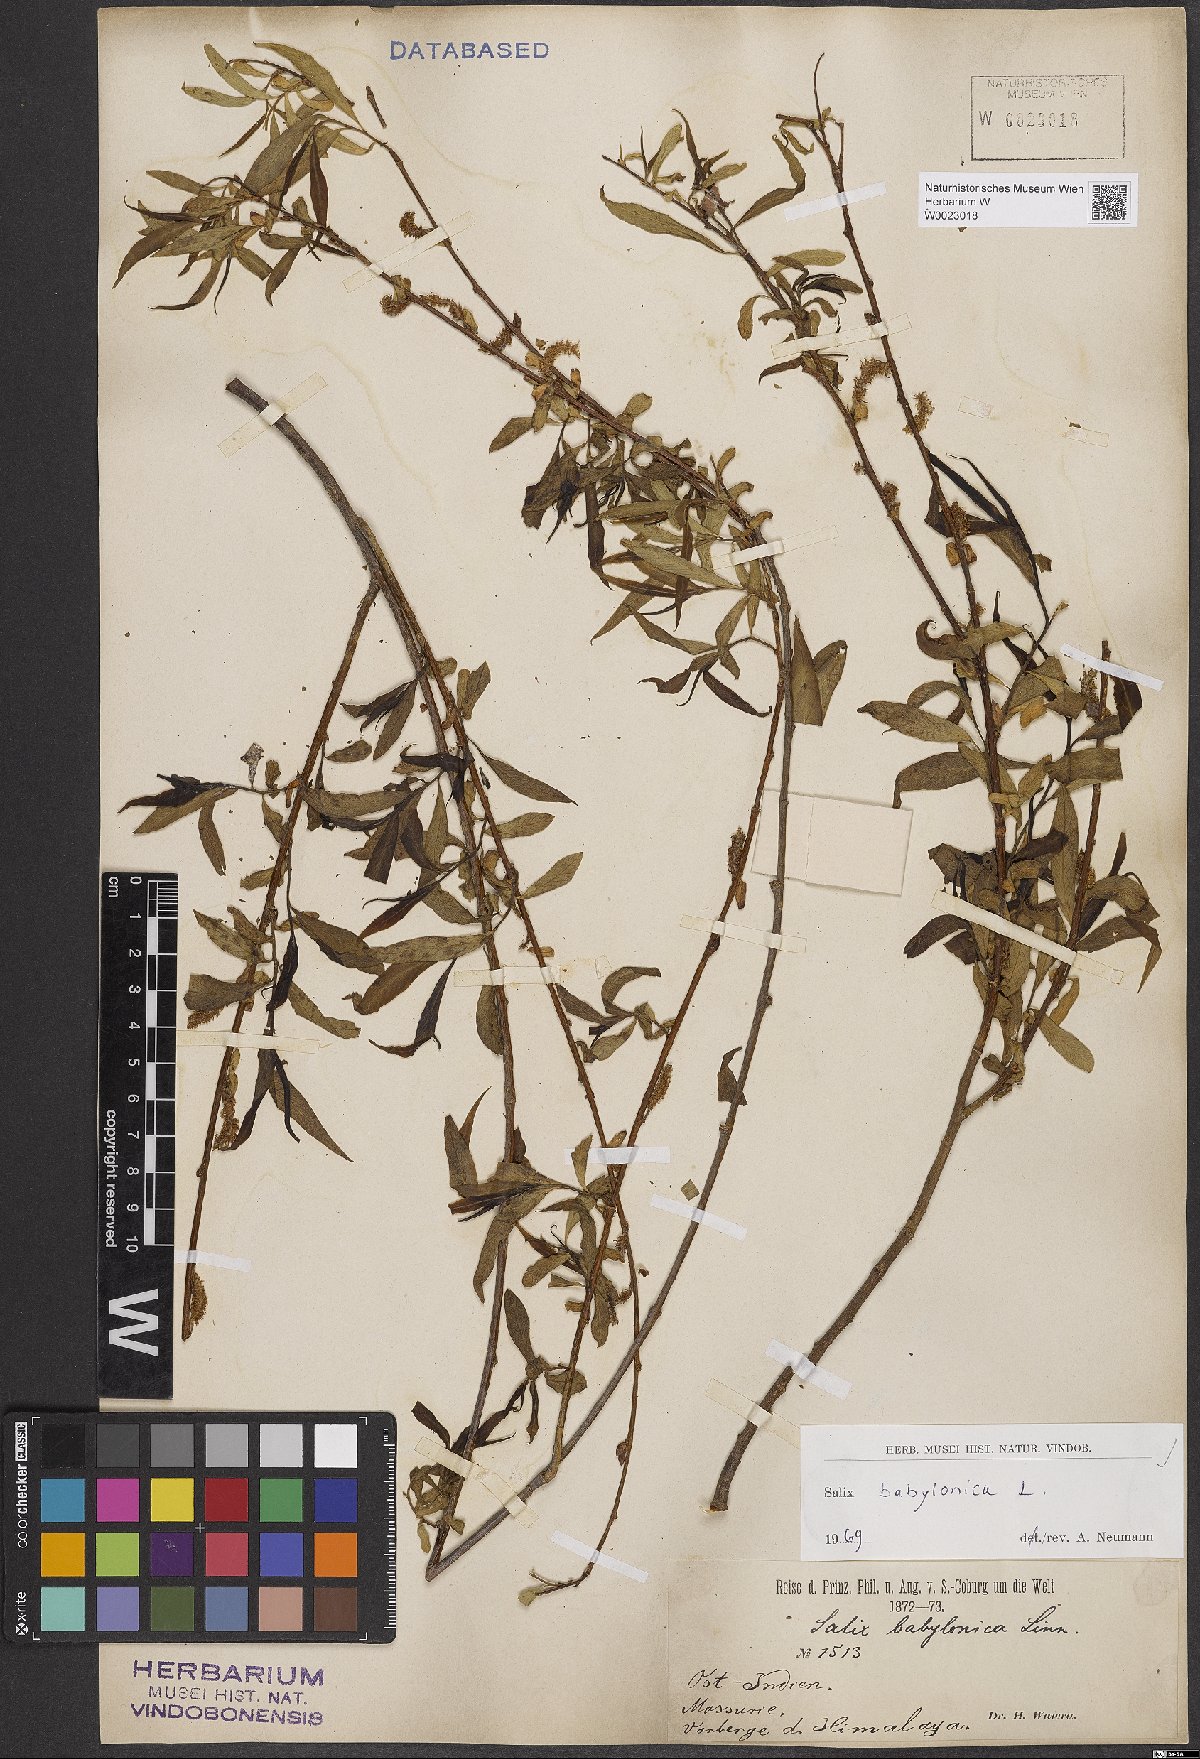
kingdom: Plantae
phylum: Tracheophyta
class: Magnoliopsida
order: Malpighiales
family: Salicaceae
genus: Salix
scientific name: Salix babylonica
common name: Weeping willow
